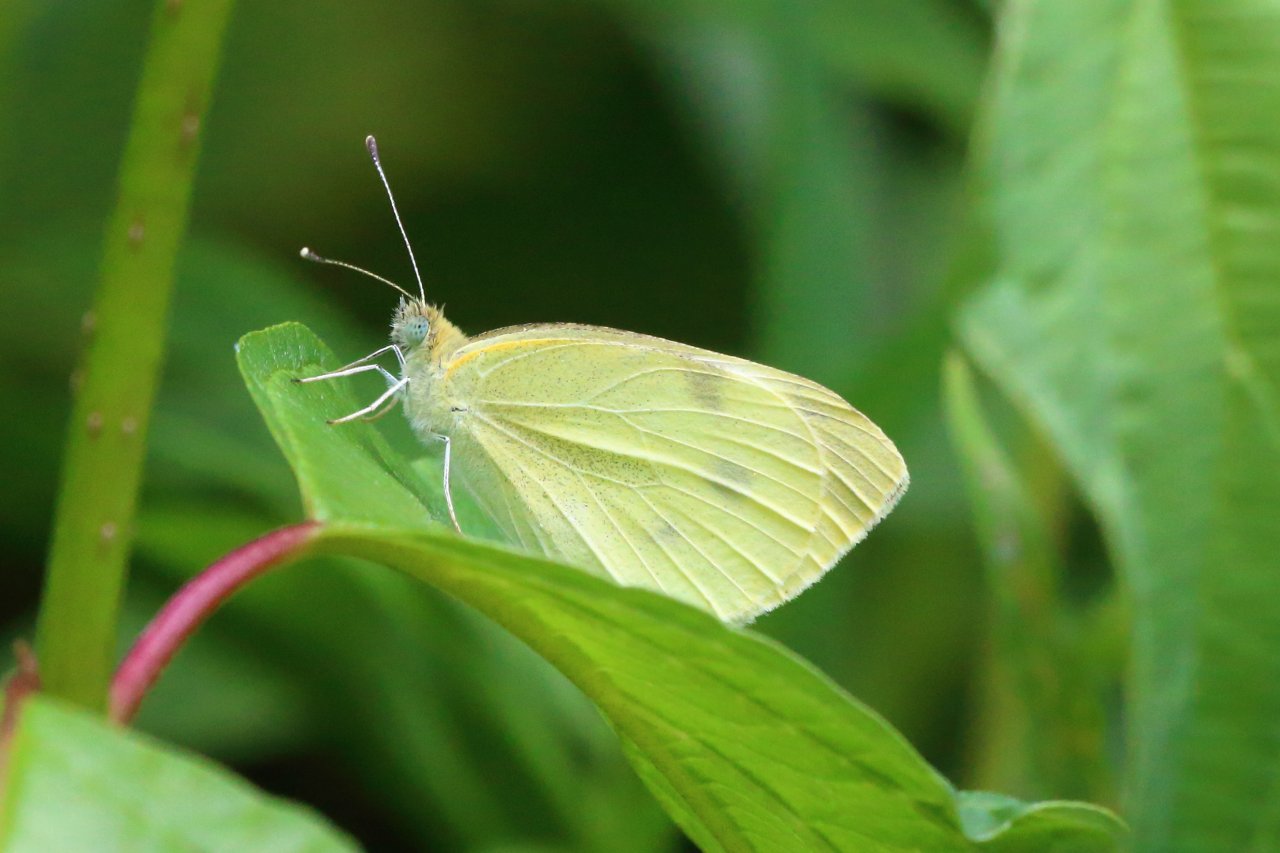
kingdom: Animalia
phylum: Arthropoda
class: Insecta
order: Lepidoptera
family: Pieridae
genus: Pieris
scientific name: Pieris rapae
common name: Cabbage White
